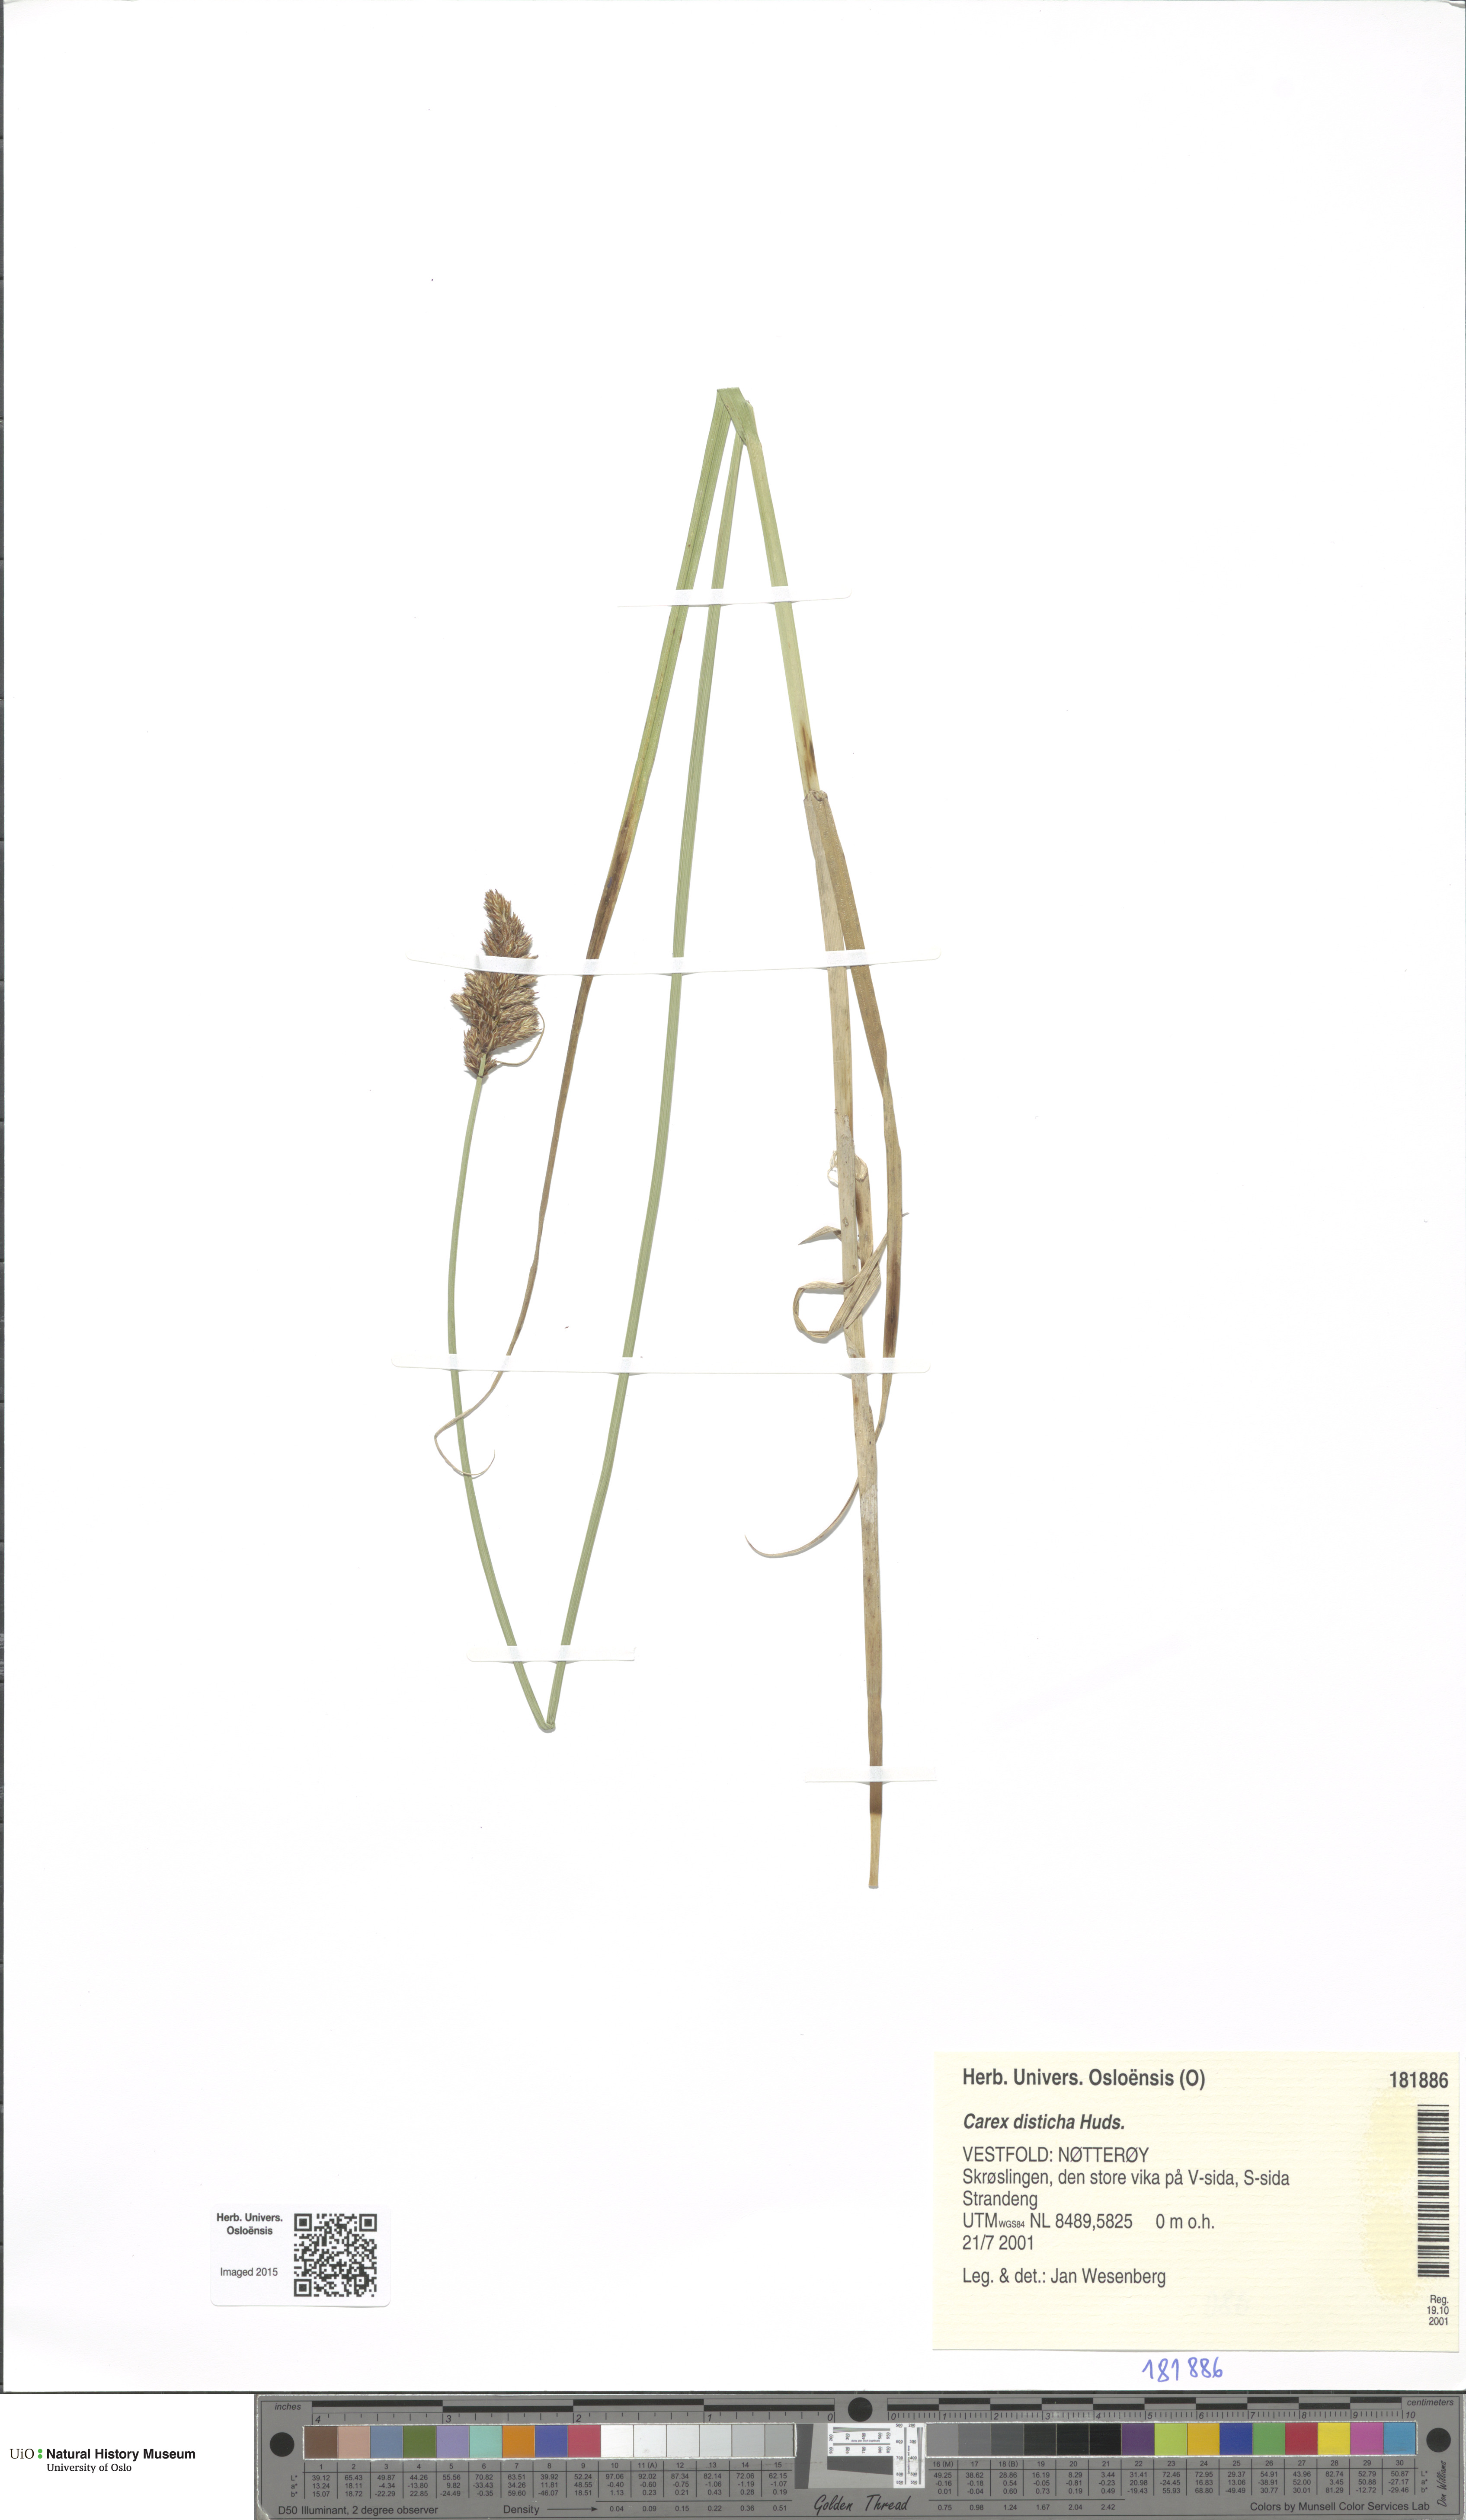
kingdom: Plantae
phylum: Tracheophyta
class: Liliopsida
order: Poales
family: Cyperaceae
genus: Carex
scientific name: Carex disticha
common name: Brown sedge
